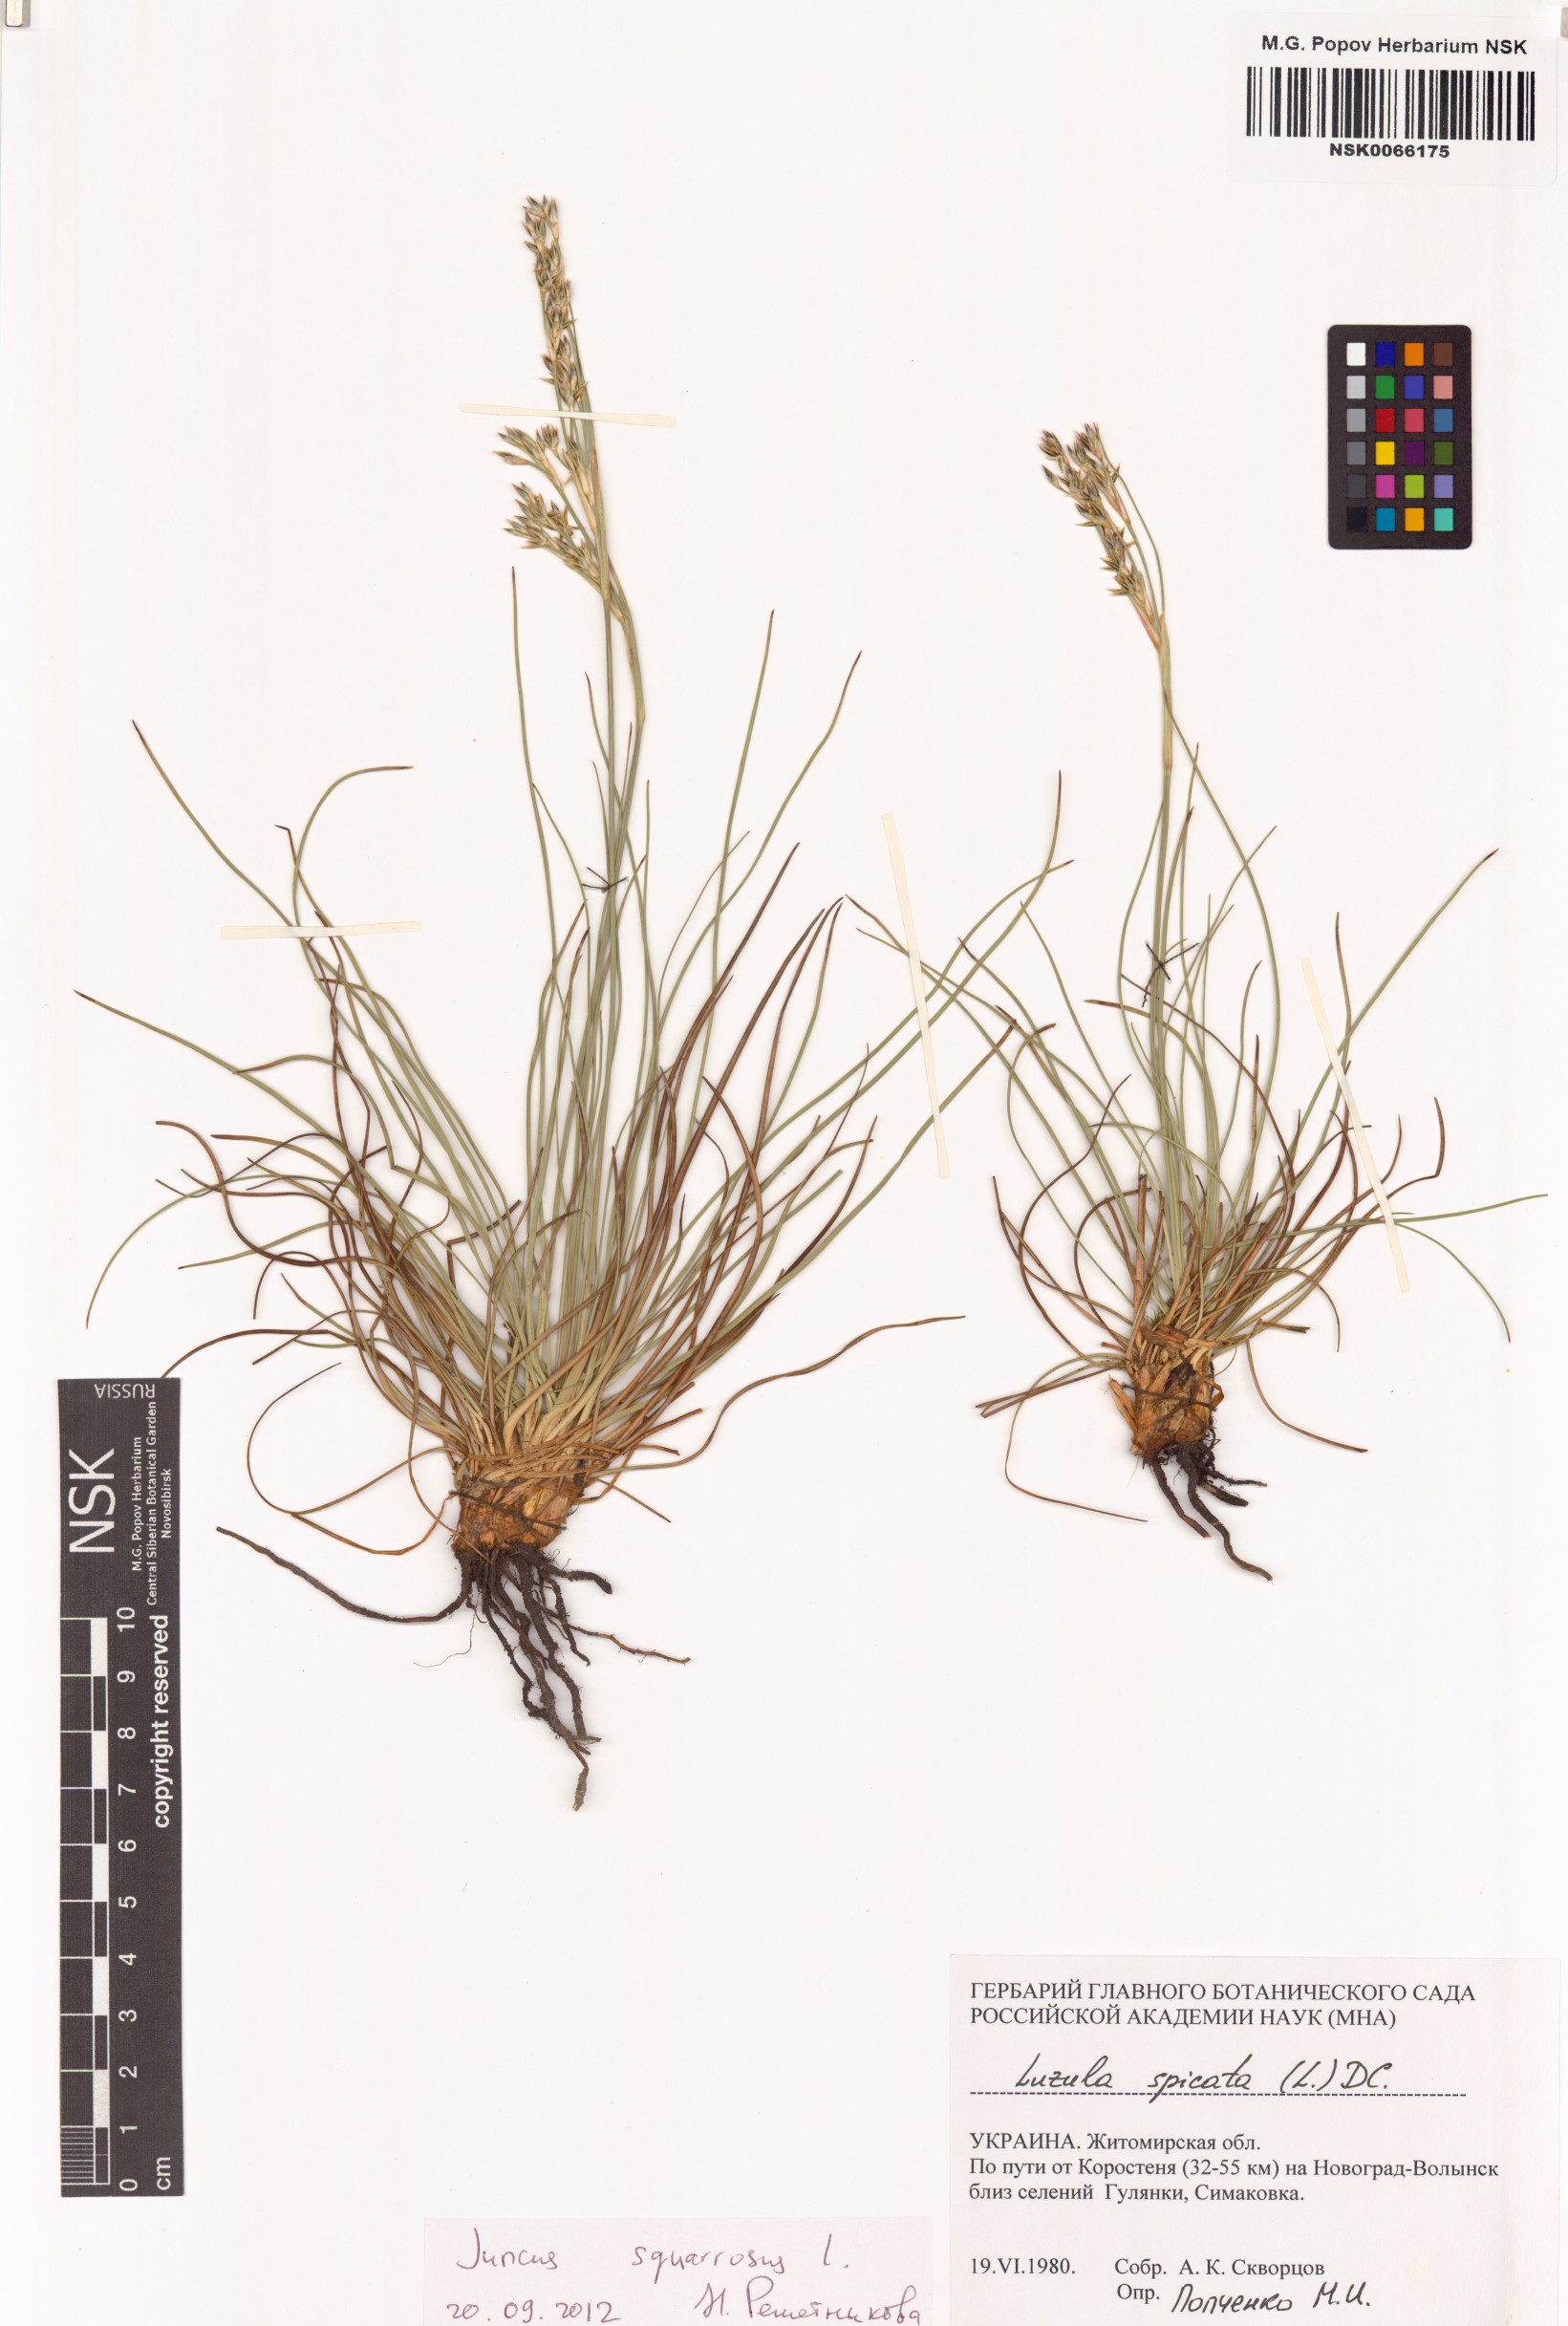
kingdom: Plantae
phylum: Tracheophyta
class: Liliopsida
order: Poales
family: Juncaceae
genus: Juncus
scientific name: Juncus squarrosus
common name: Heath rush
